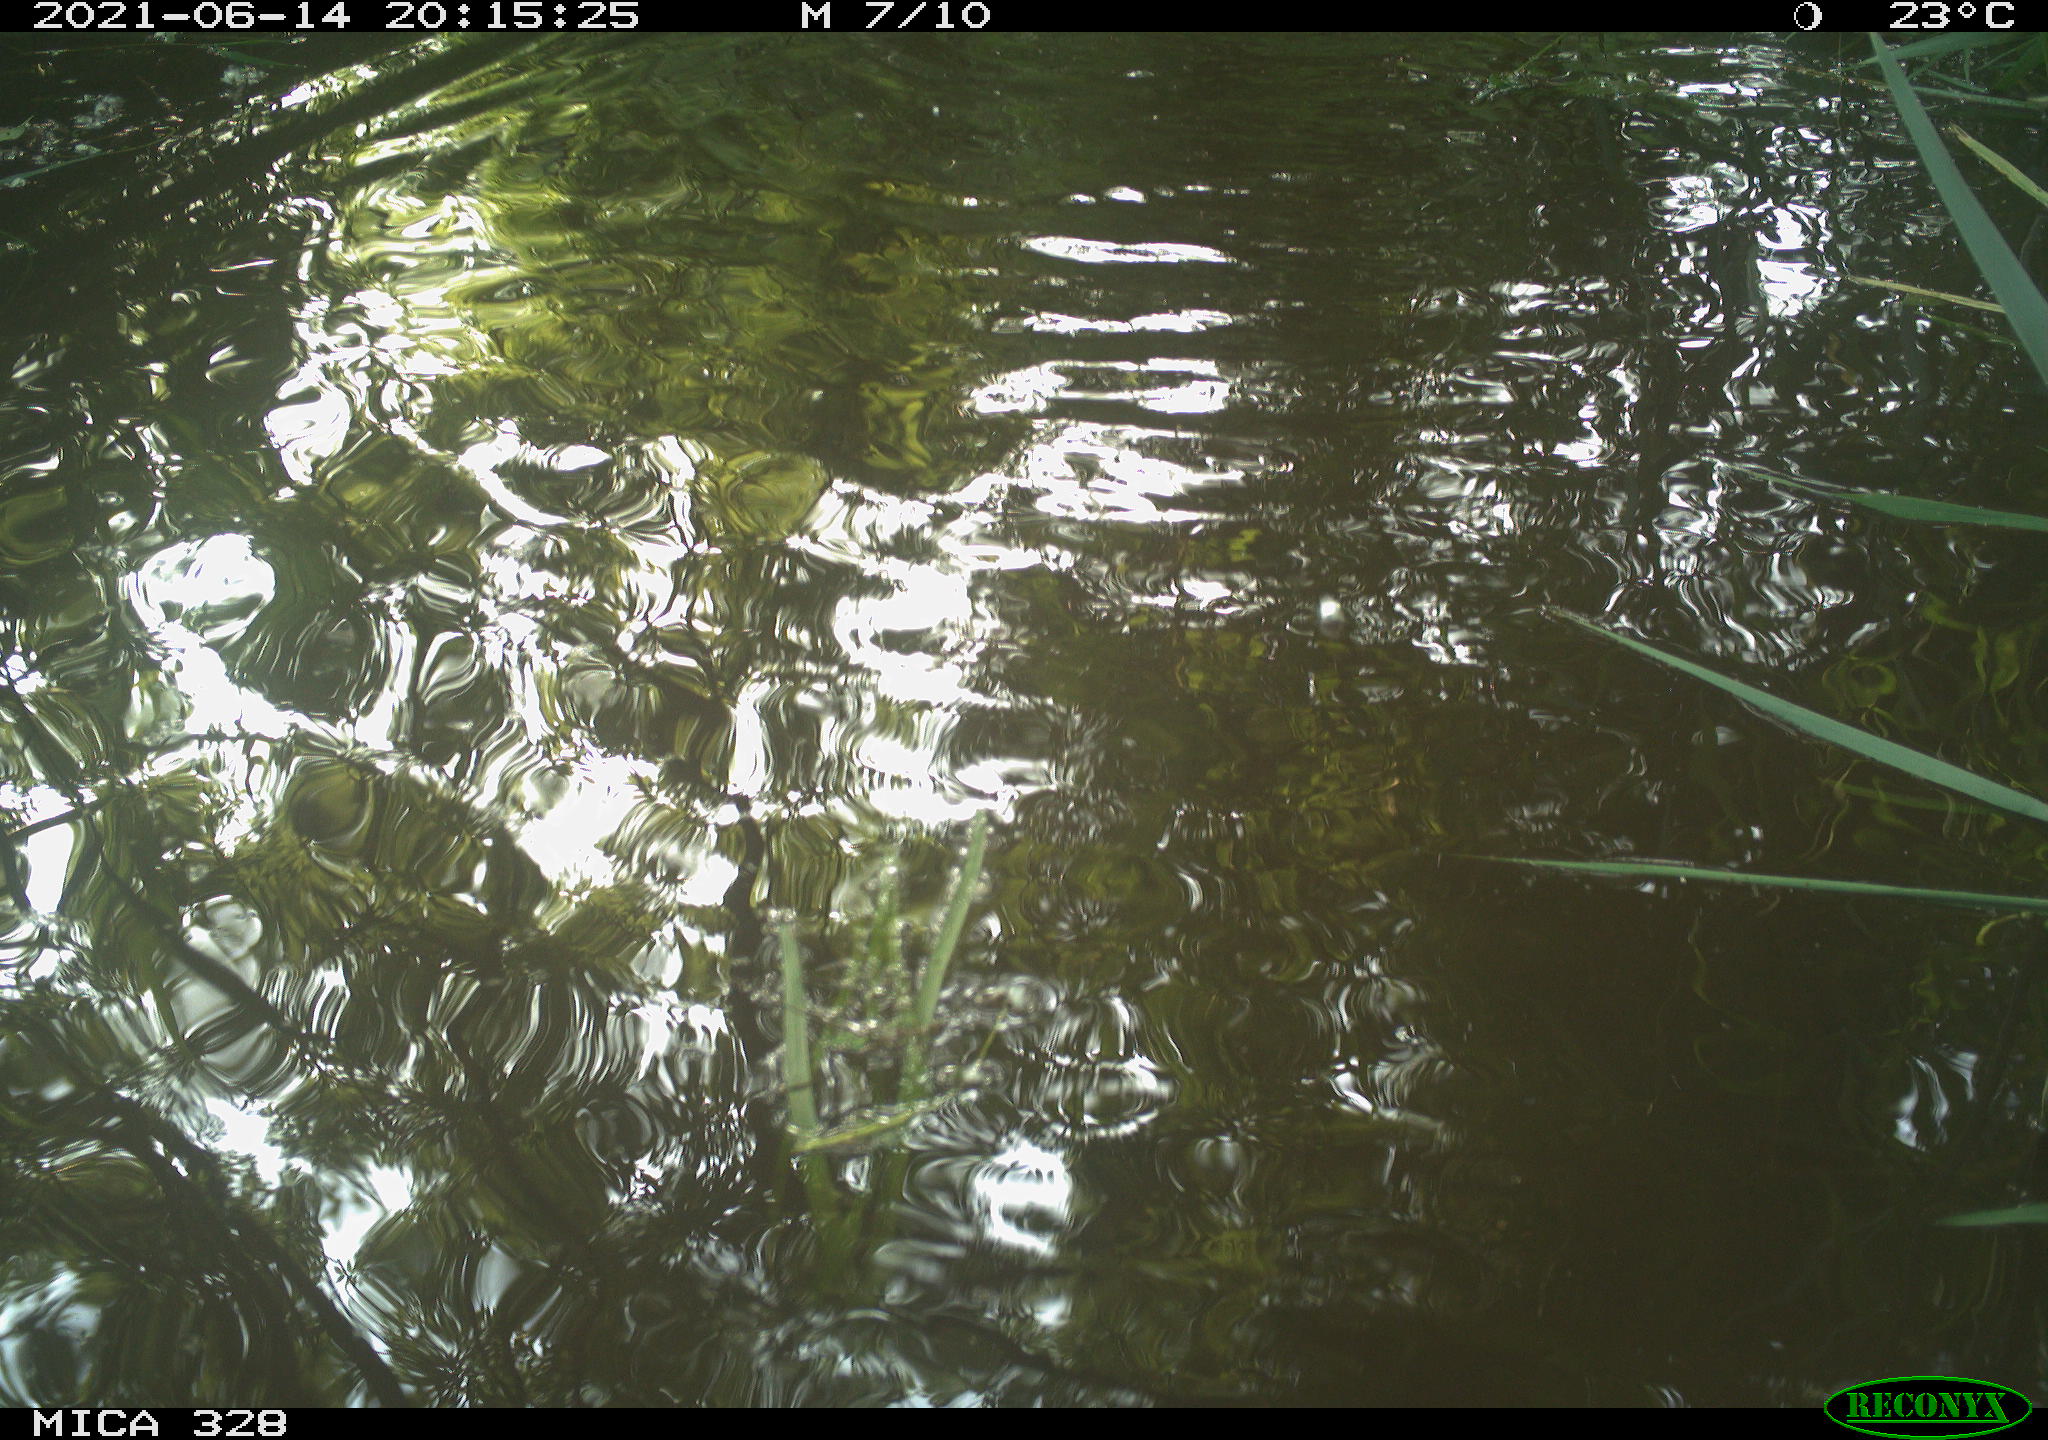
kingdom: Animalia
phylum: Chordata
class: Mammalia
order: Rodentia
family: Cricetidae
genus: Ondatra
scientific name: Ondatra zibethicus
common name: Muskrat
